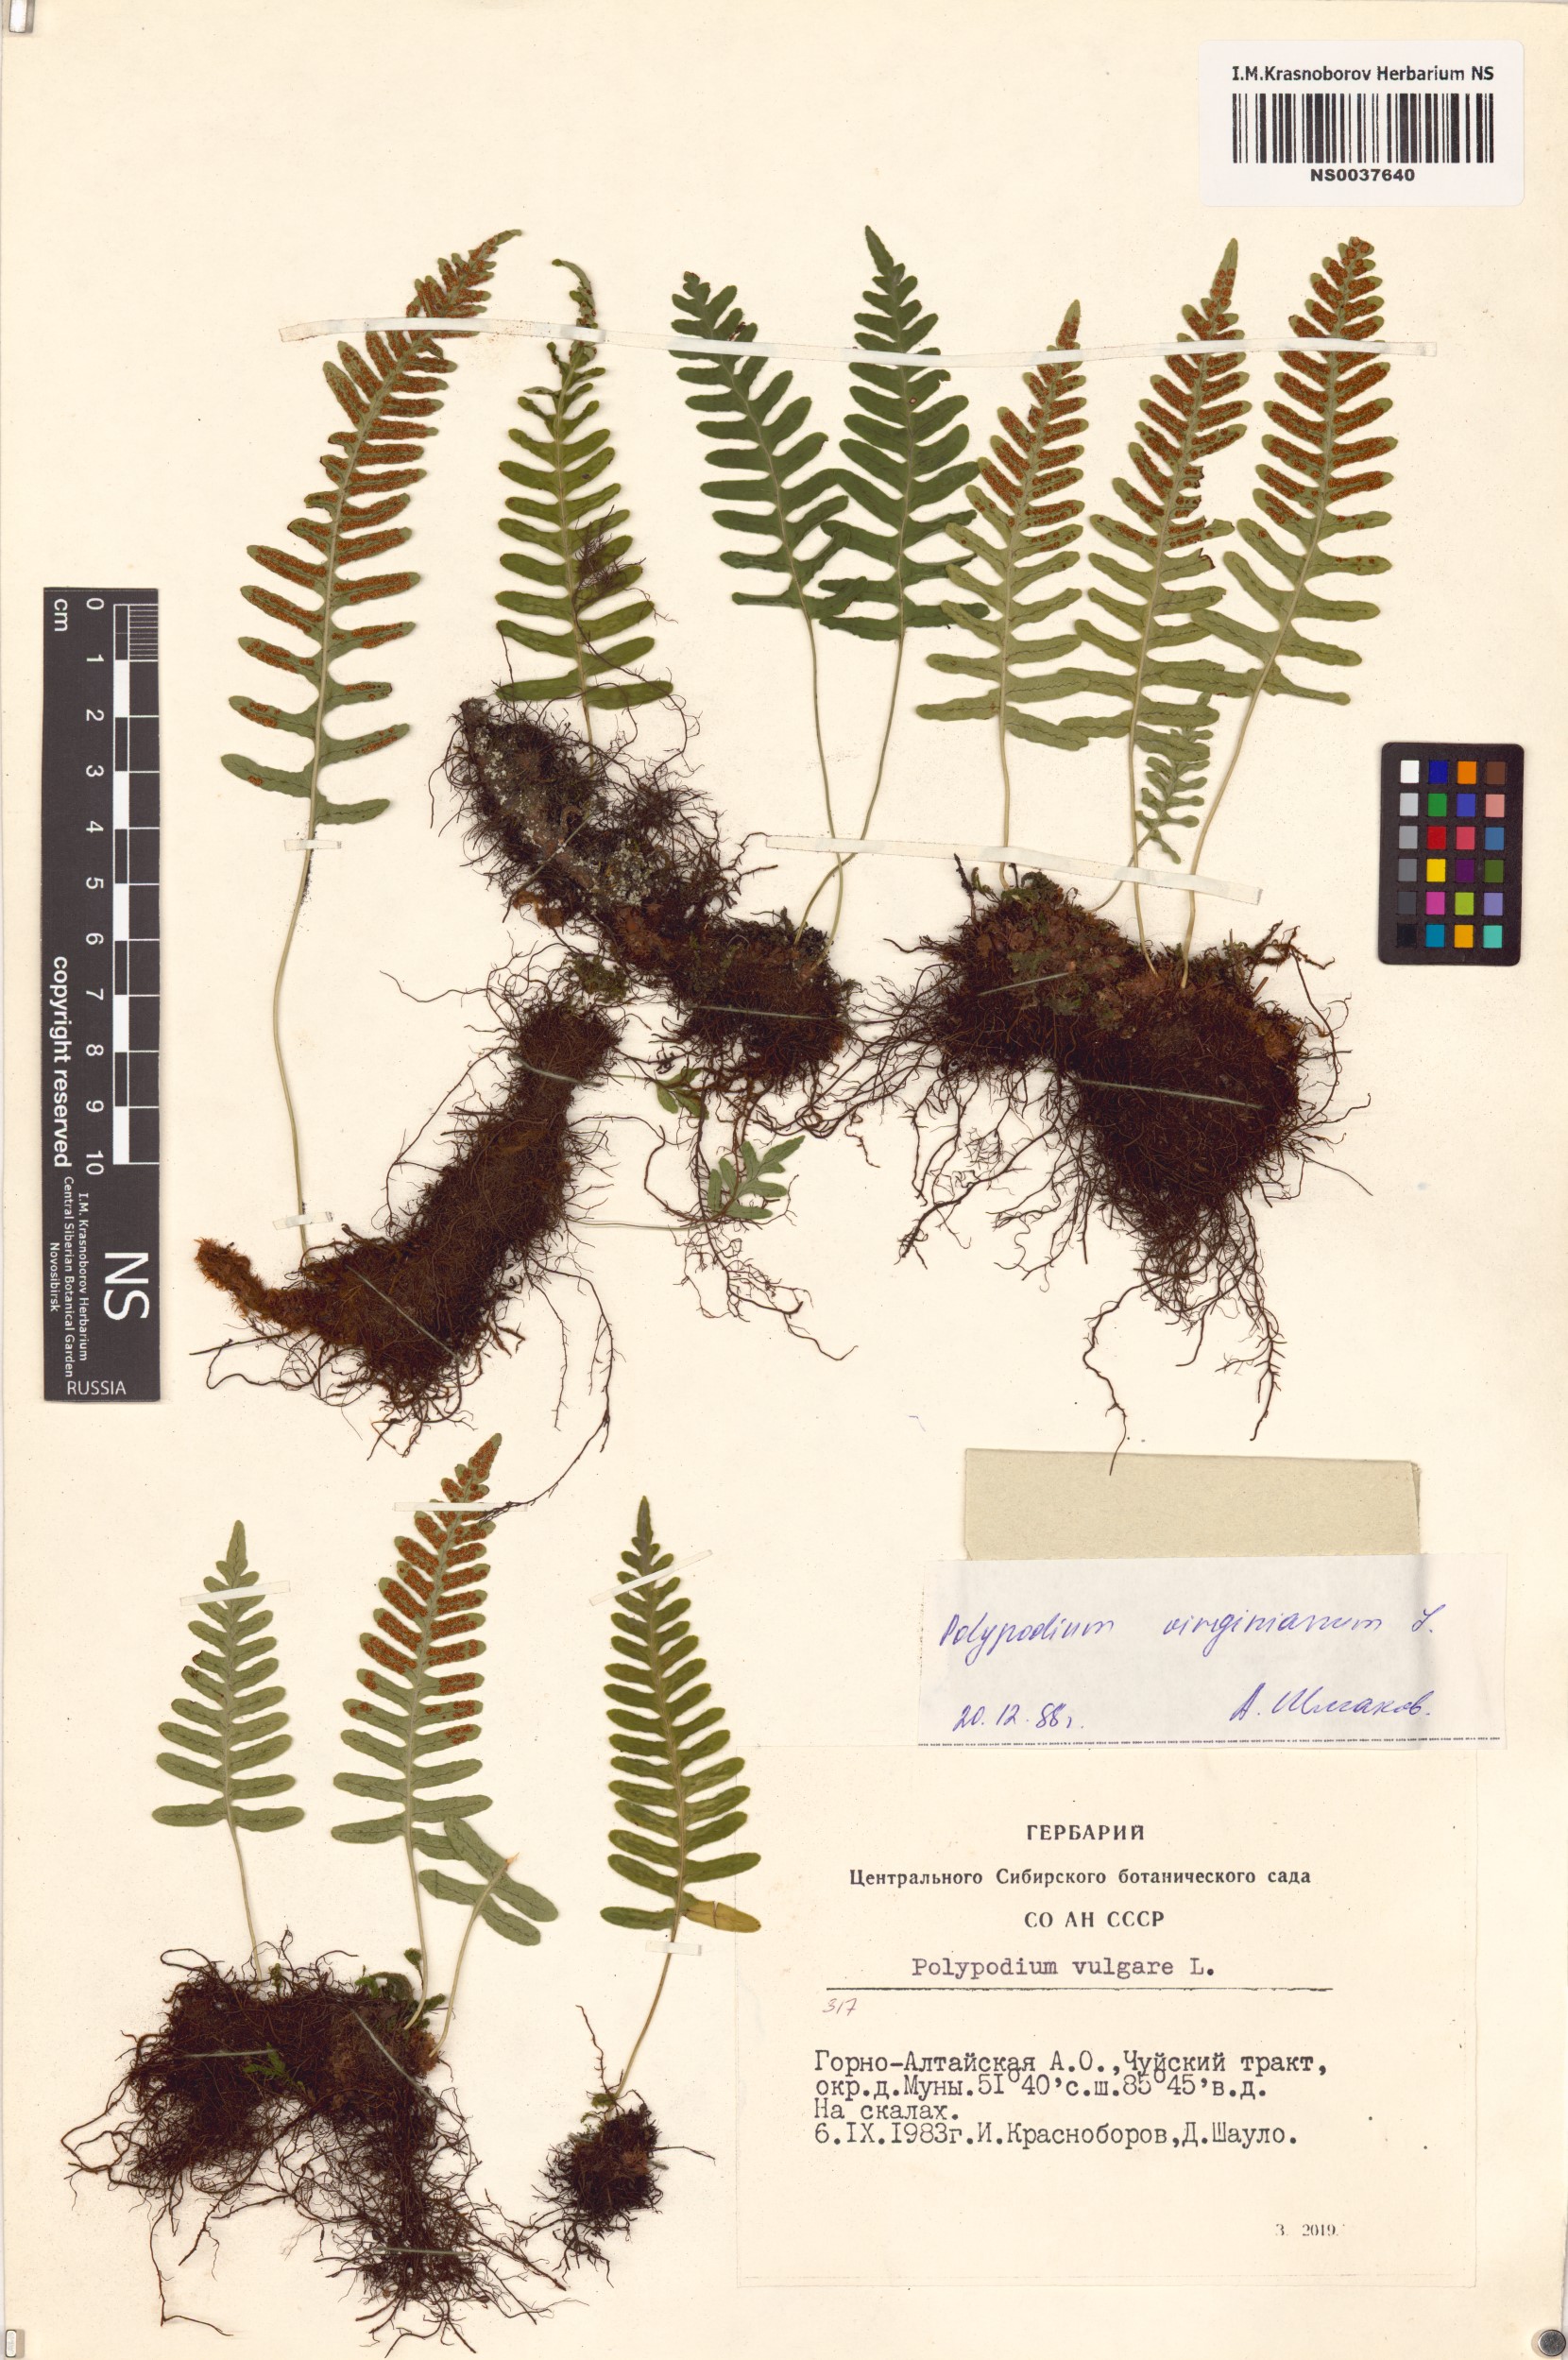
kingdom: Plantae
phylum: Tracheophyta
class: Polypodiopsida
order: Polypodiales
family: Polypodiaceae
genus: Polypodium
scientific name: Polypodium virginianum
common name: American wall fern
